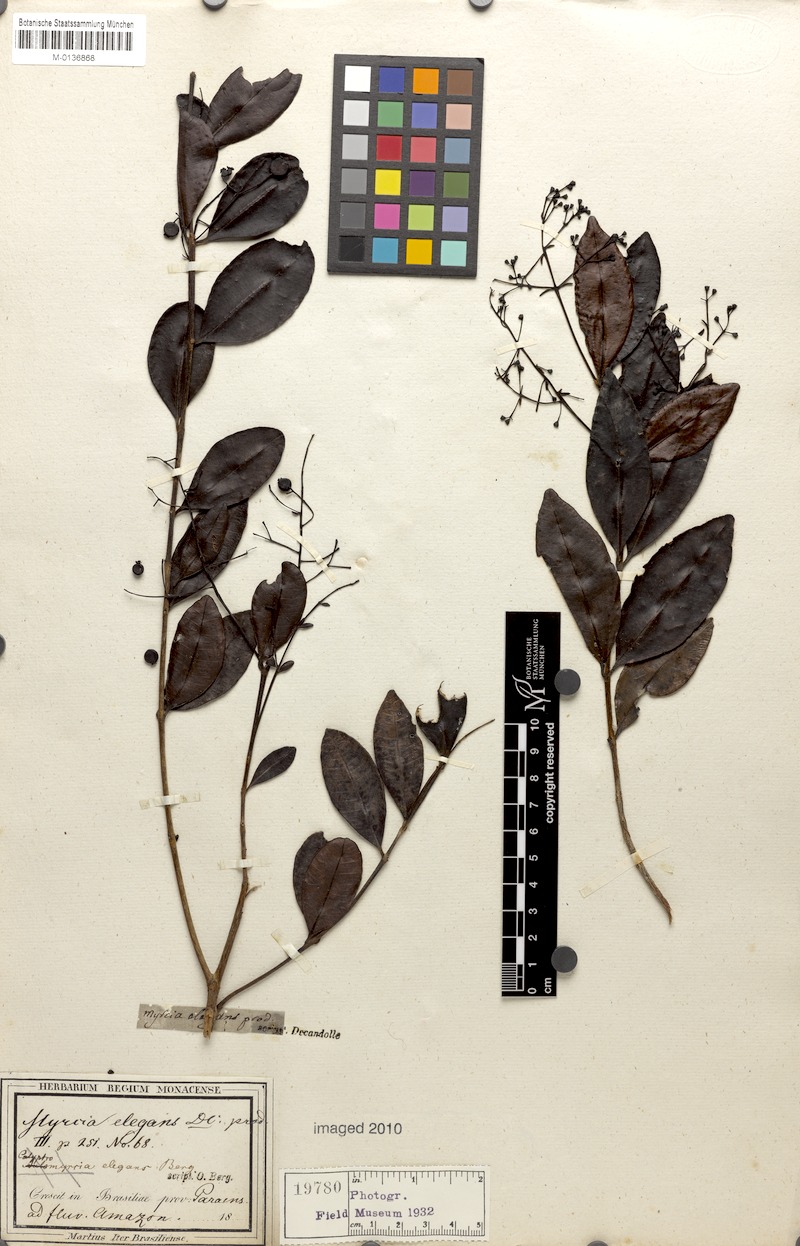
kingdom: Plantae
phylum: Tracheophyta
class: Magnoliopsida
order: Myrtales
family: Myrtaceae
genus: Myrcia
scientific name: Myrcia guianensis
